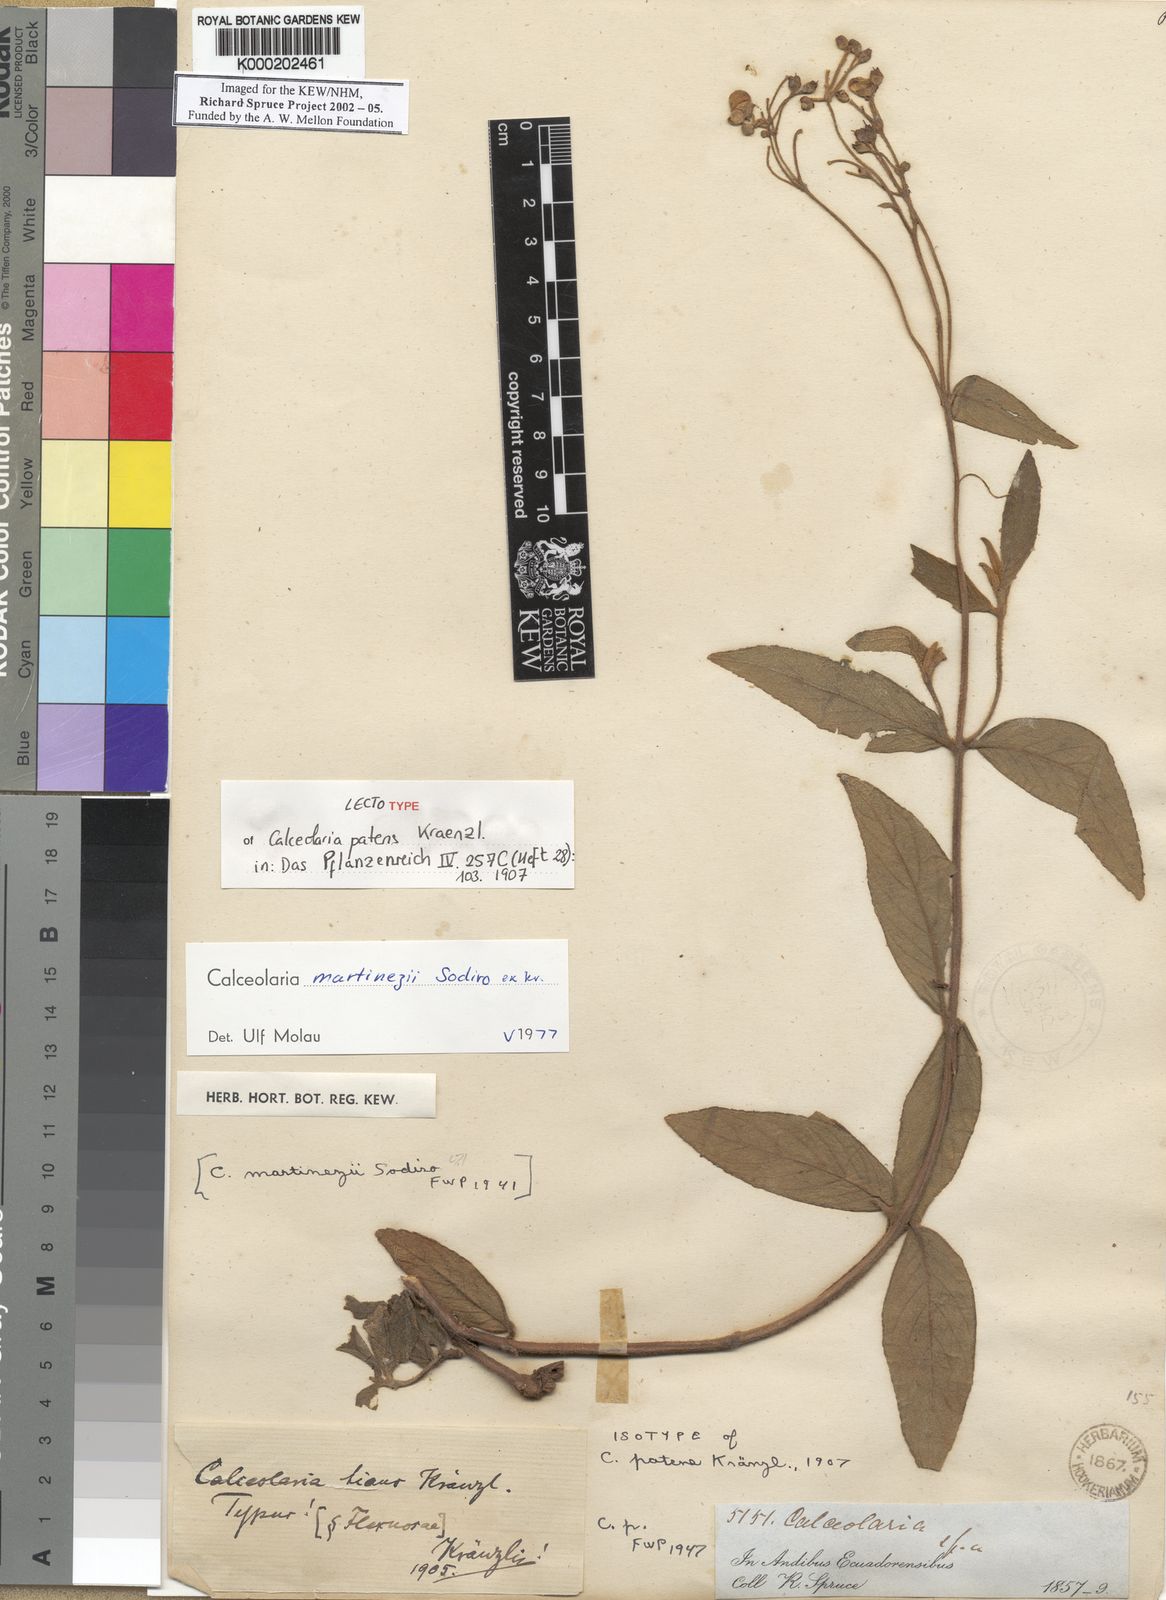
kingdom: Plantae
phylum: Tracheophyta
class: Magnoliopsida
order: Lamiales
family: Calceolariaceae
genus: Calceolaria
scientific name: Calceolaria martinezii
